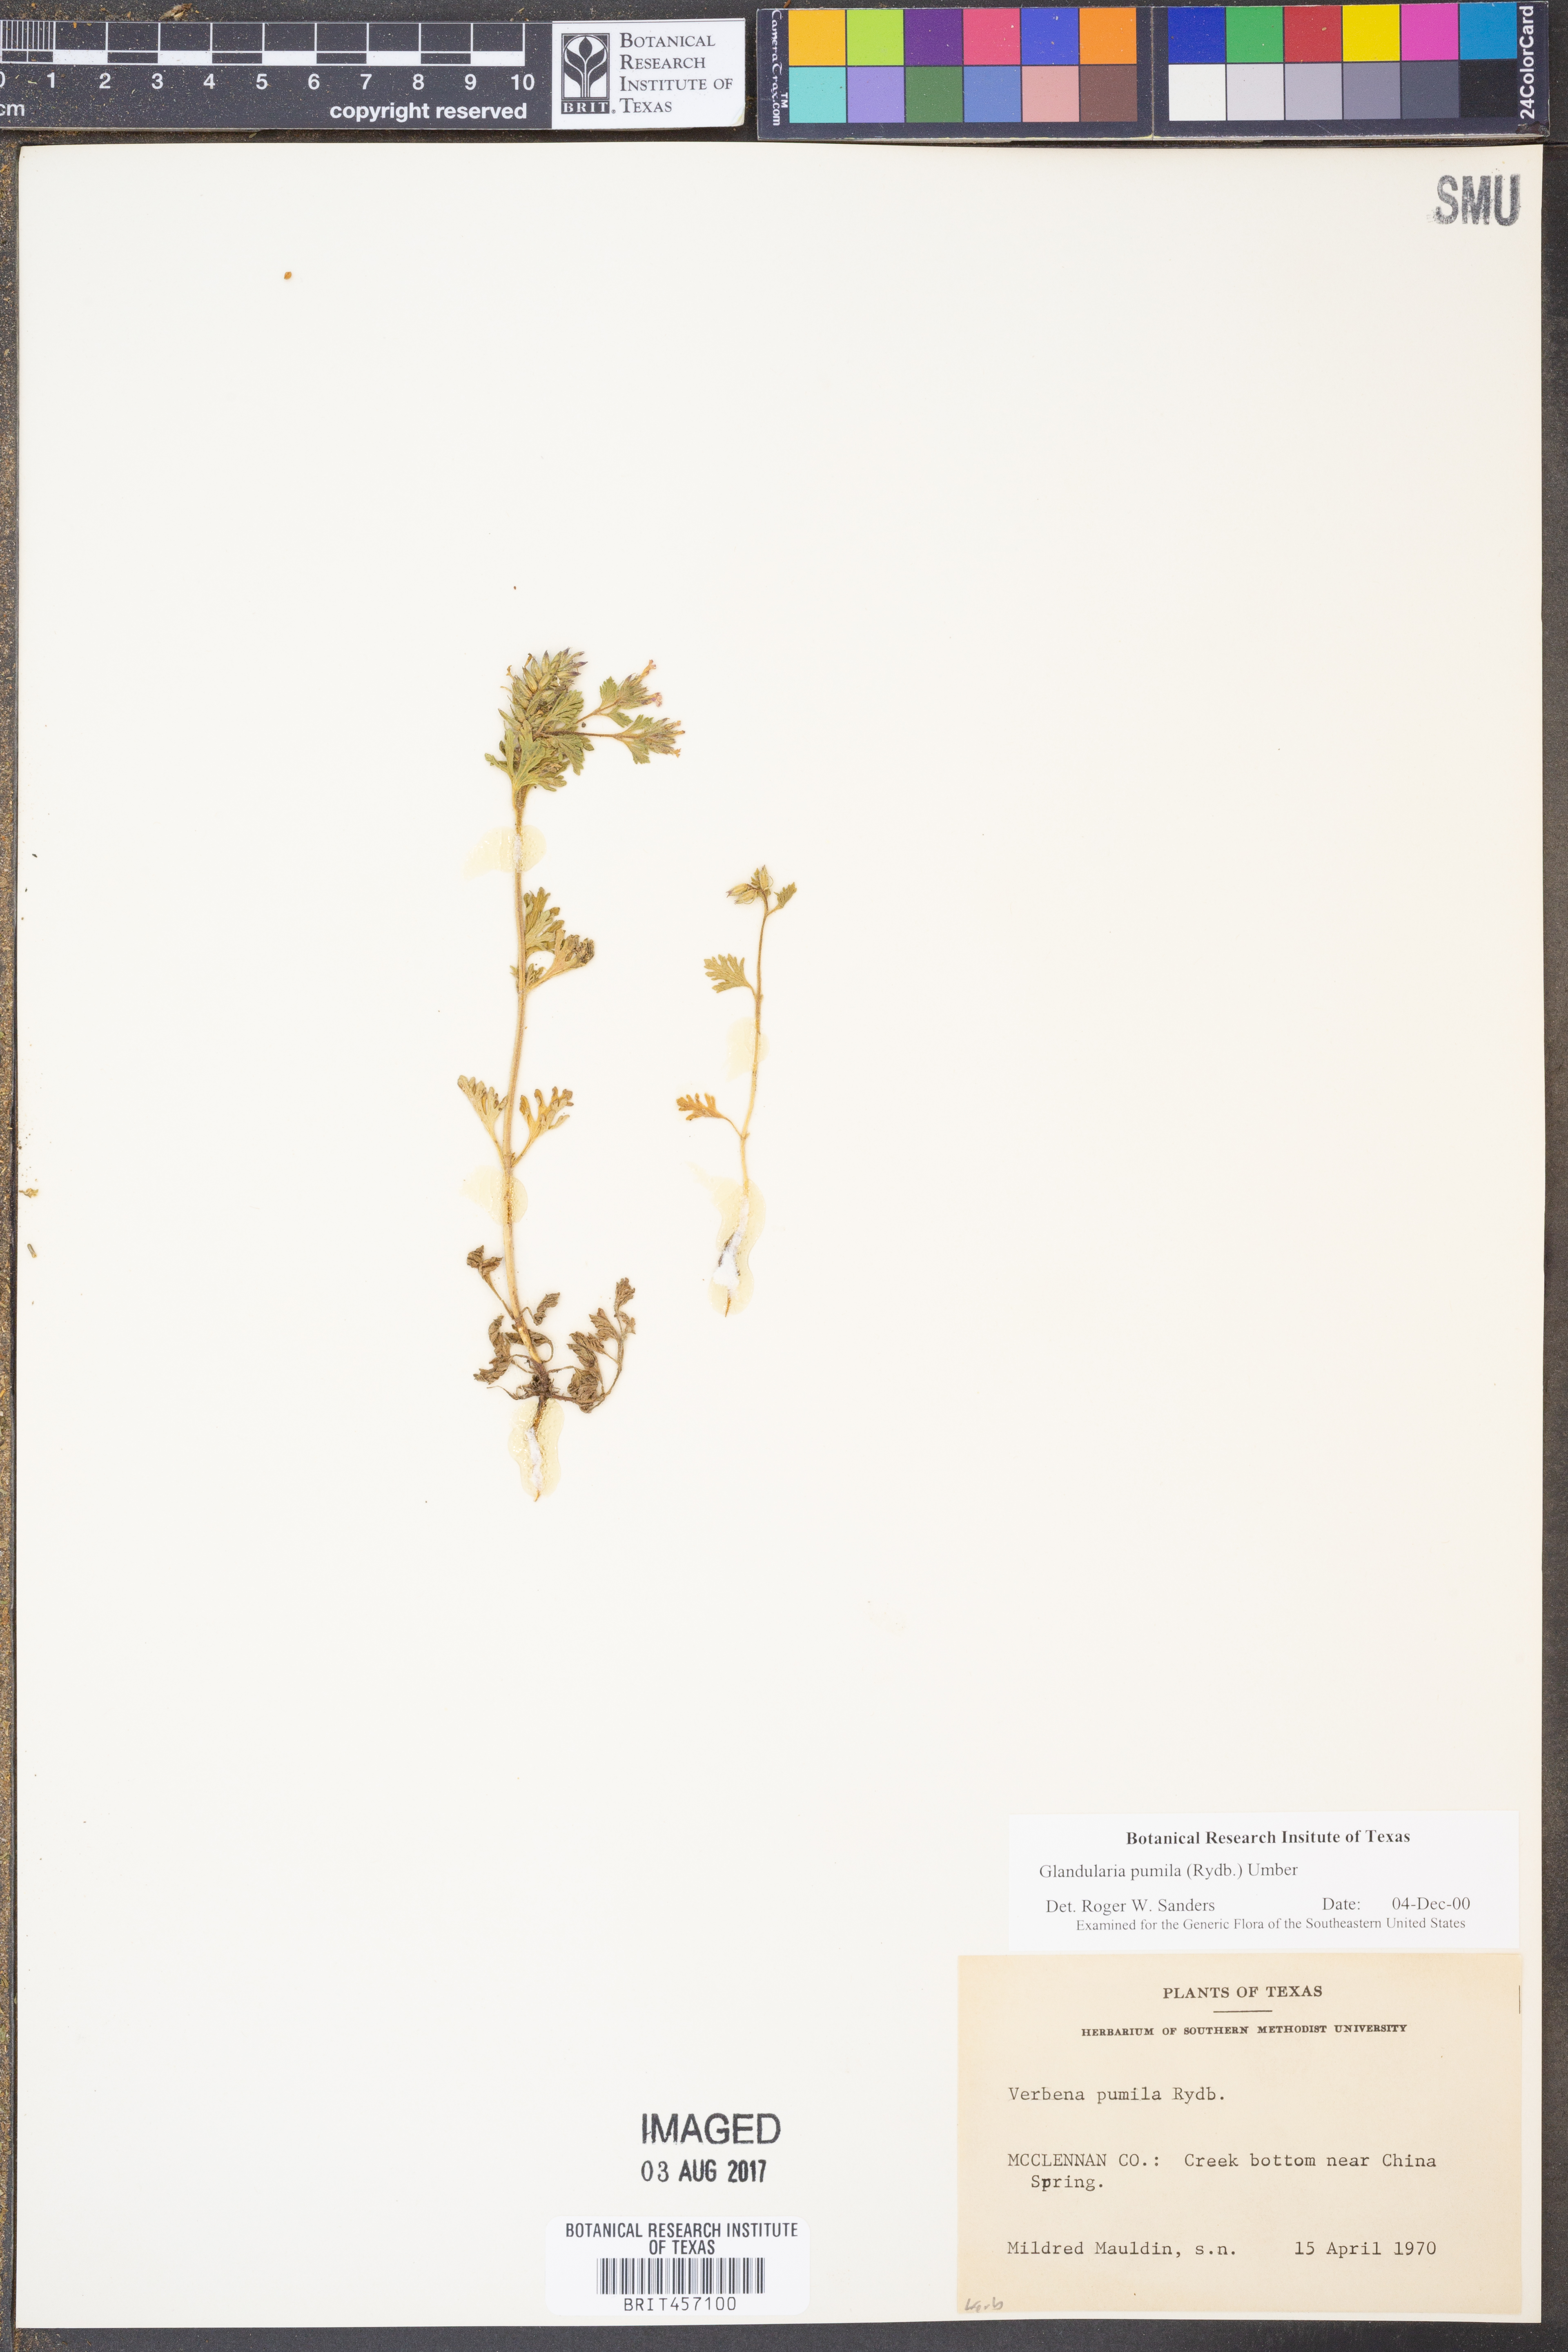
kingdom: Plantae
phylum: Tracheophyta
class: Magnoliopsida
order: Lamiales
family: Verbenaceae
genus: Verbena
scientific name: Verbena pumila
